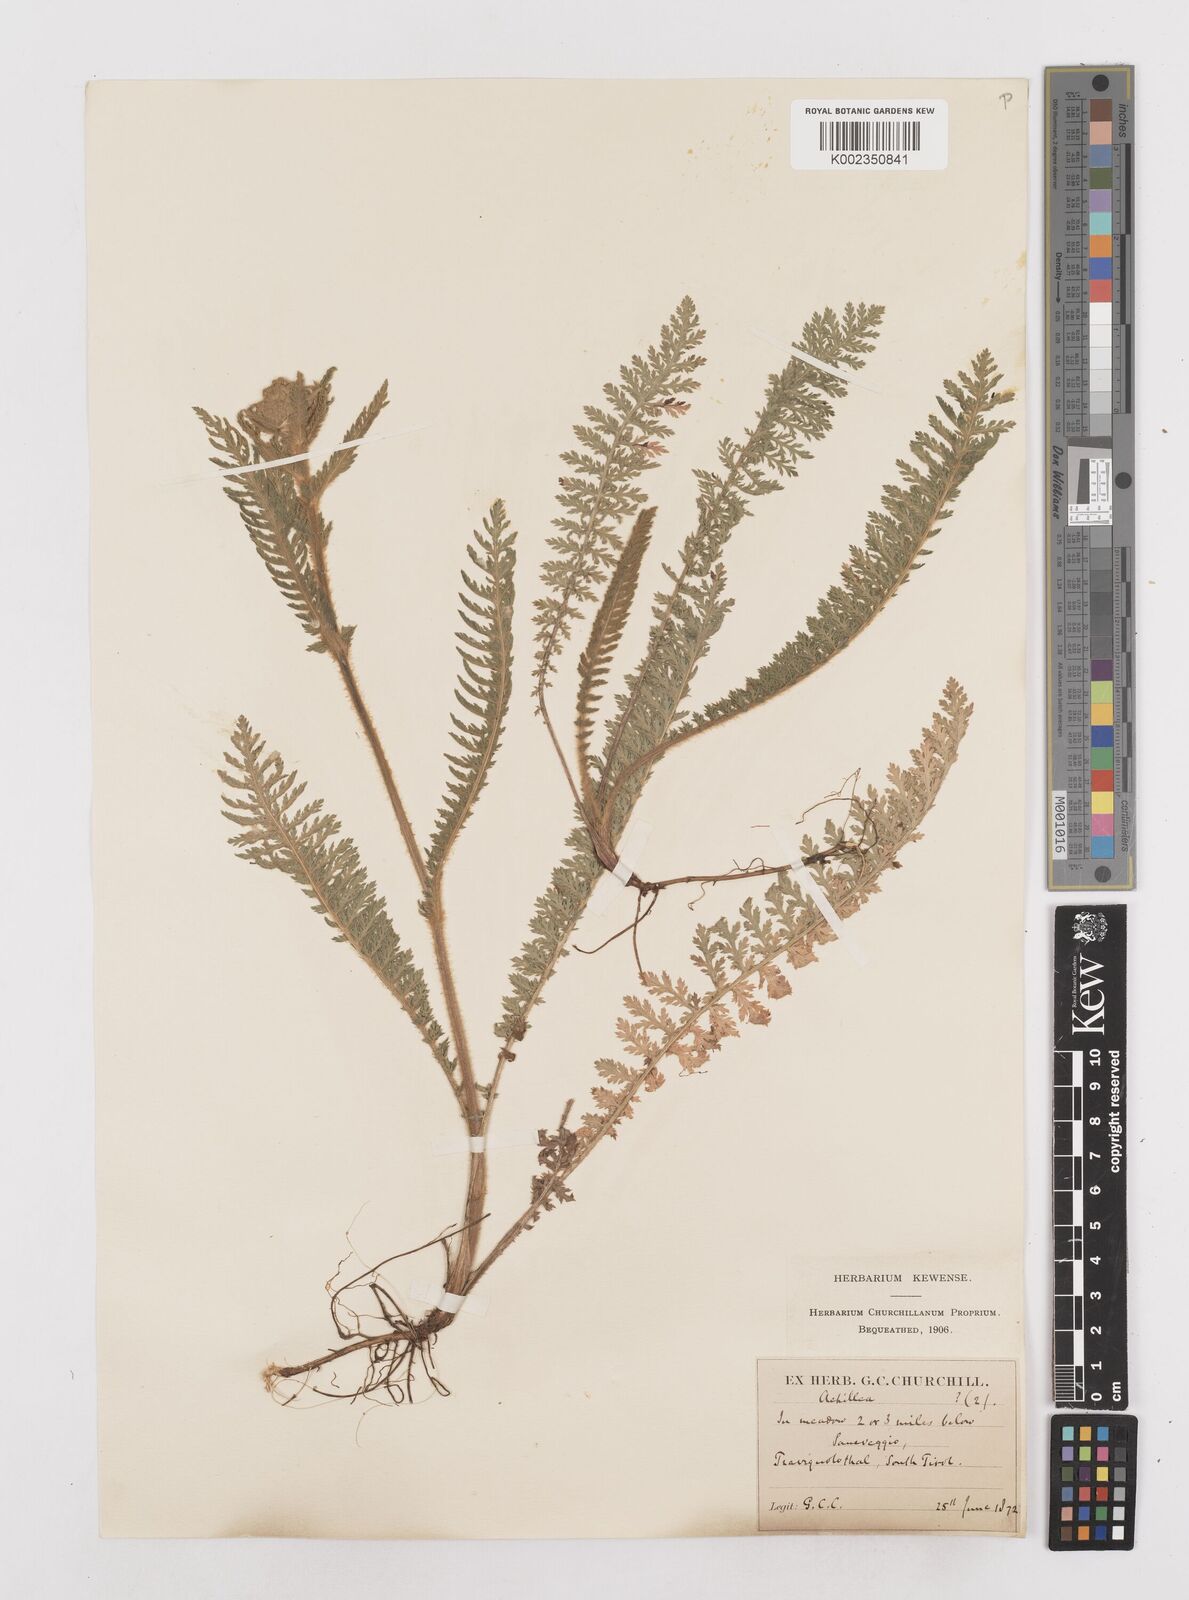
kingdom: Plantae
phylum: Tracheophyta
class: Magnoliopsida
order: Asterales
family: Asteraceae
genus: Achillea
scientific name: Achillea distans
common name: Tall yarrow
